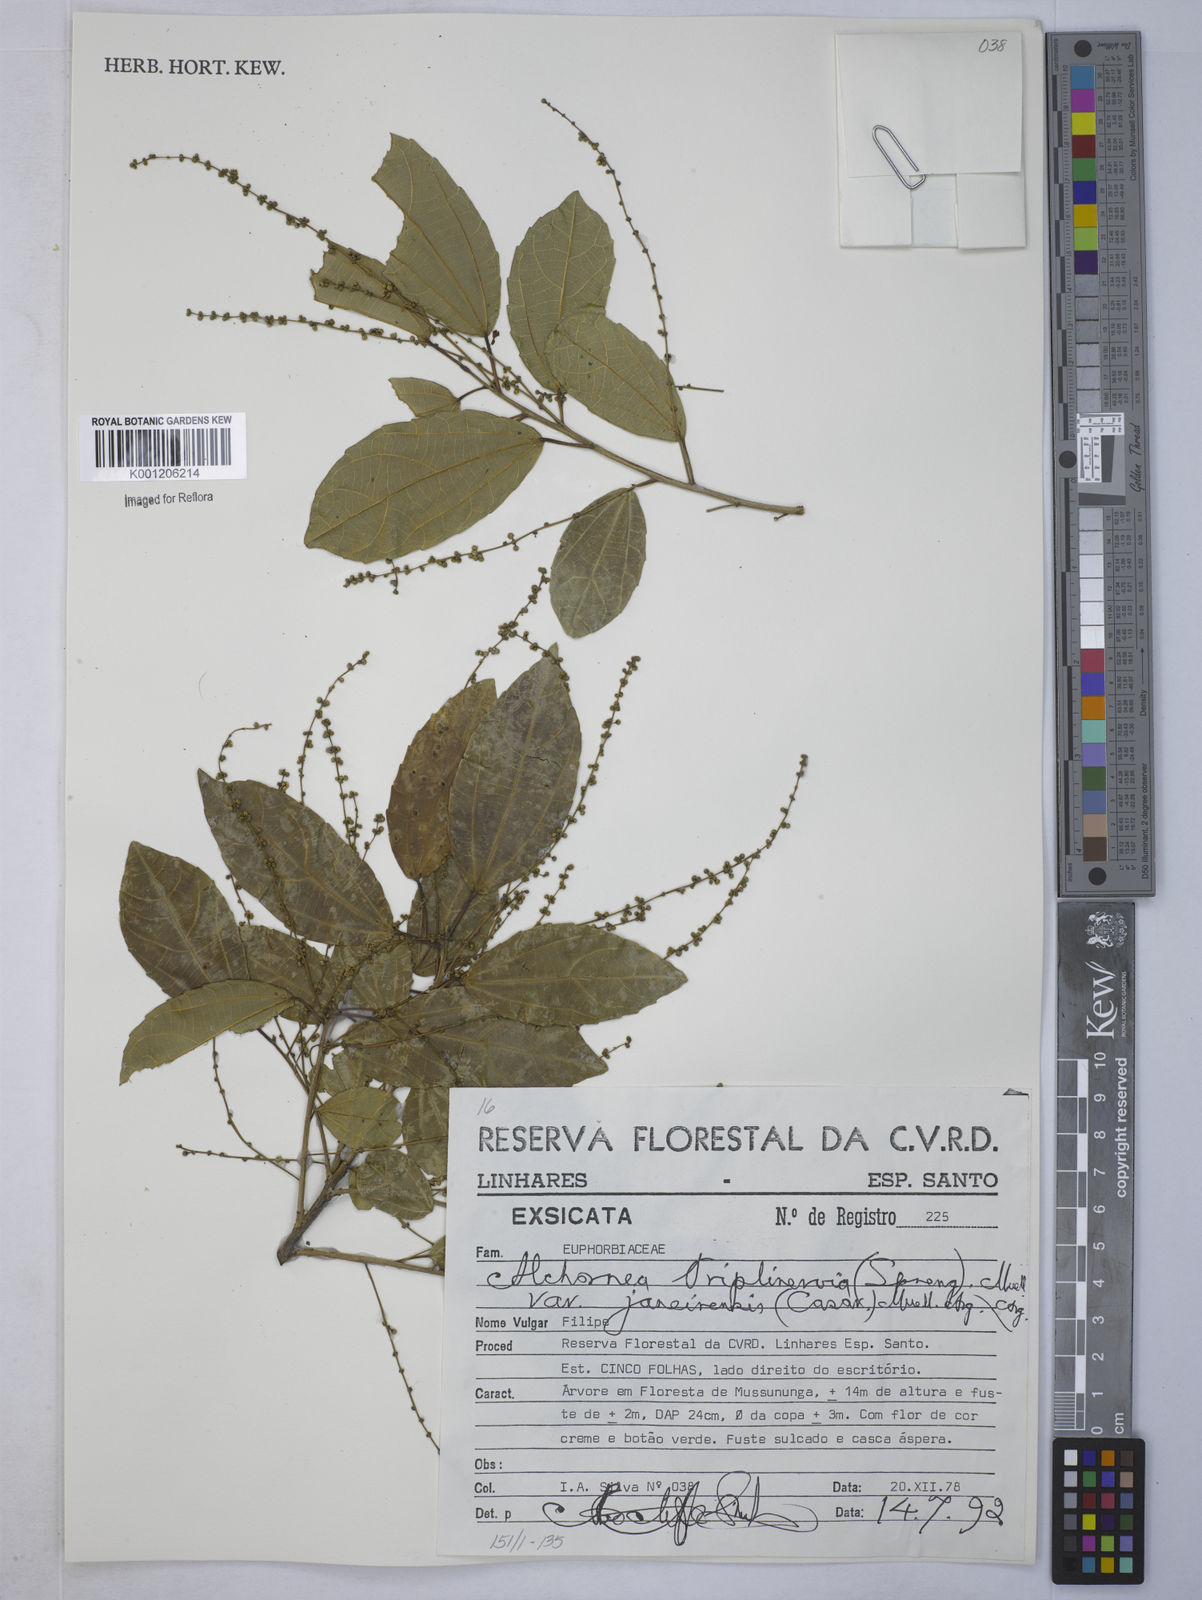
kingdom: Plantae
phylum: Tracheophyta
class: Magnoliopsida
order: Malpighiales
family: Euphorbiaceae
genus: Alchornea
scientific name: Alchornea
